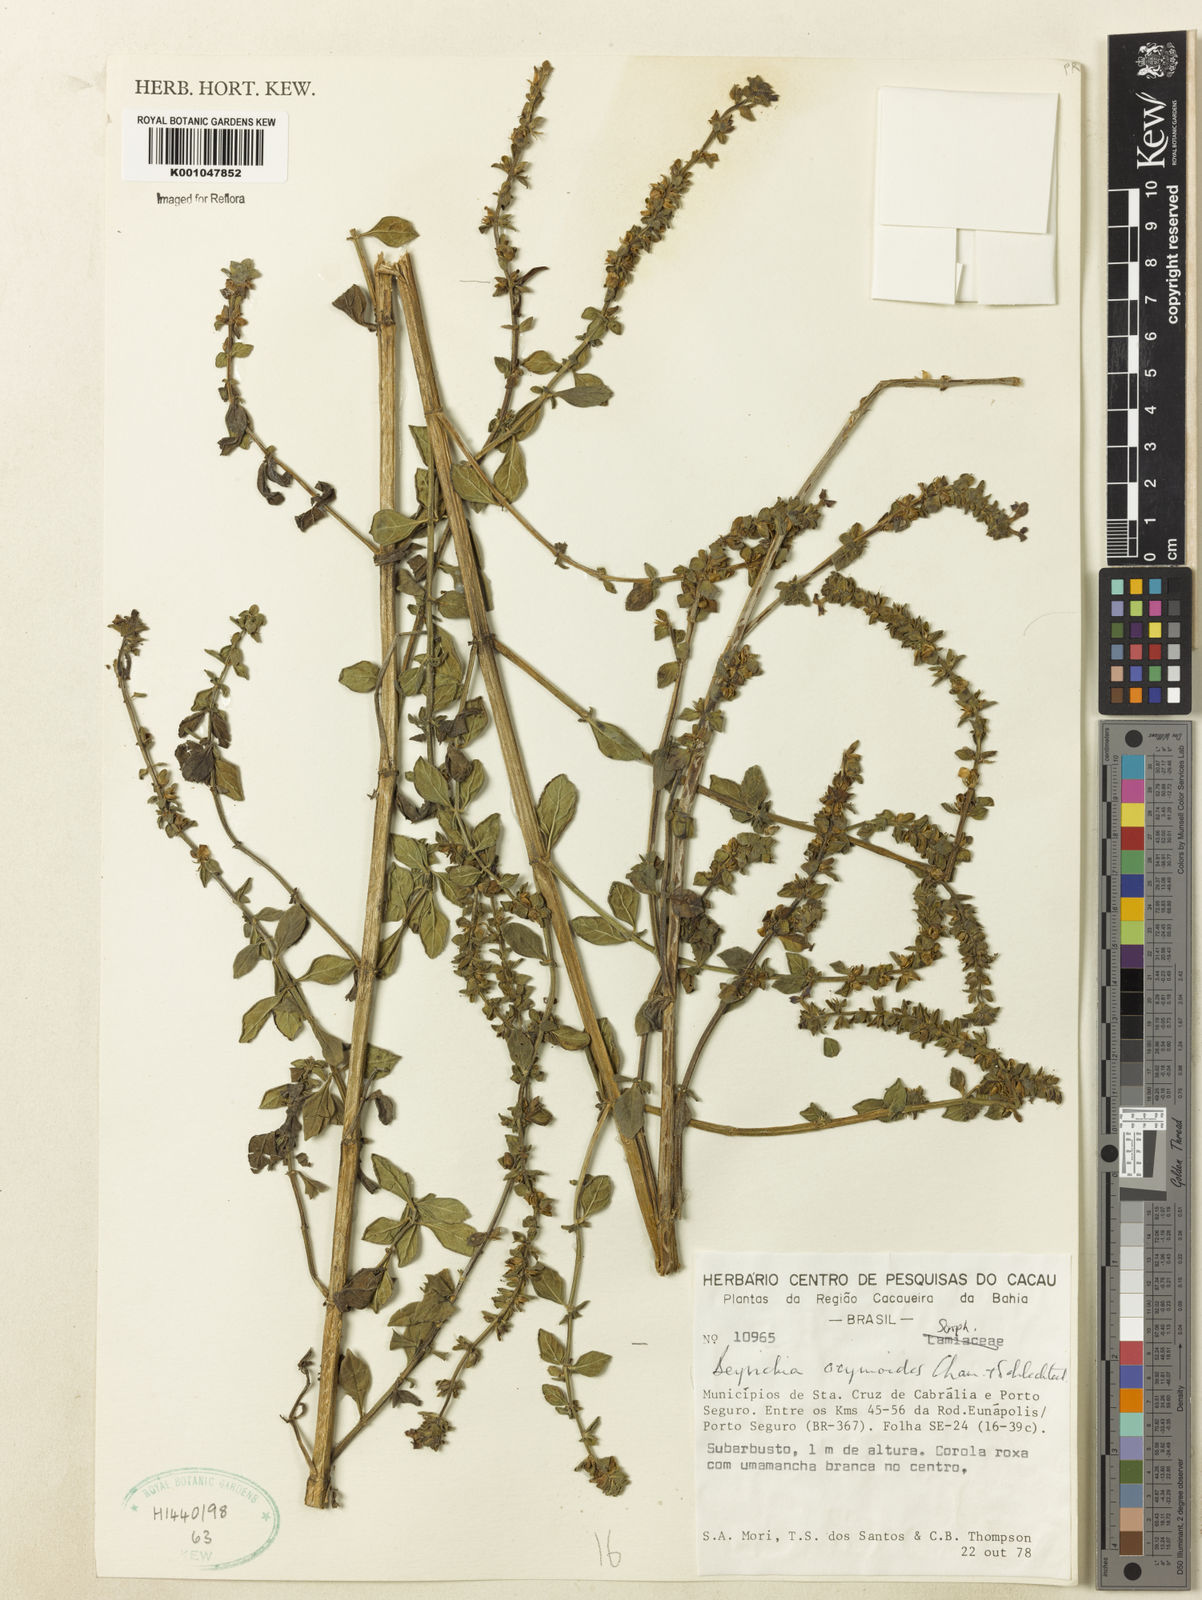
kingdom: Plantae
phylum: Tracheophyta
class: Magnoliopsida
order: Lamiales
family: Plantaginaceae
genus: Matourea
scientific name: Matourea ocymoides
